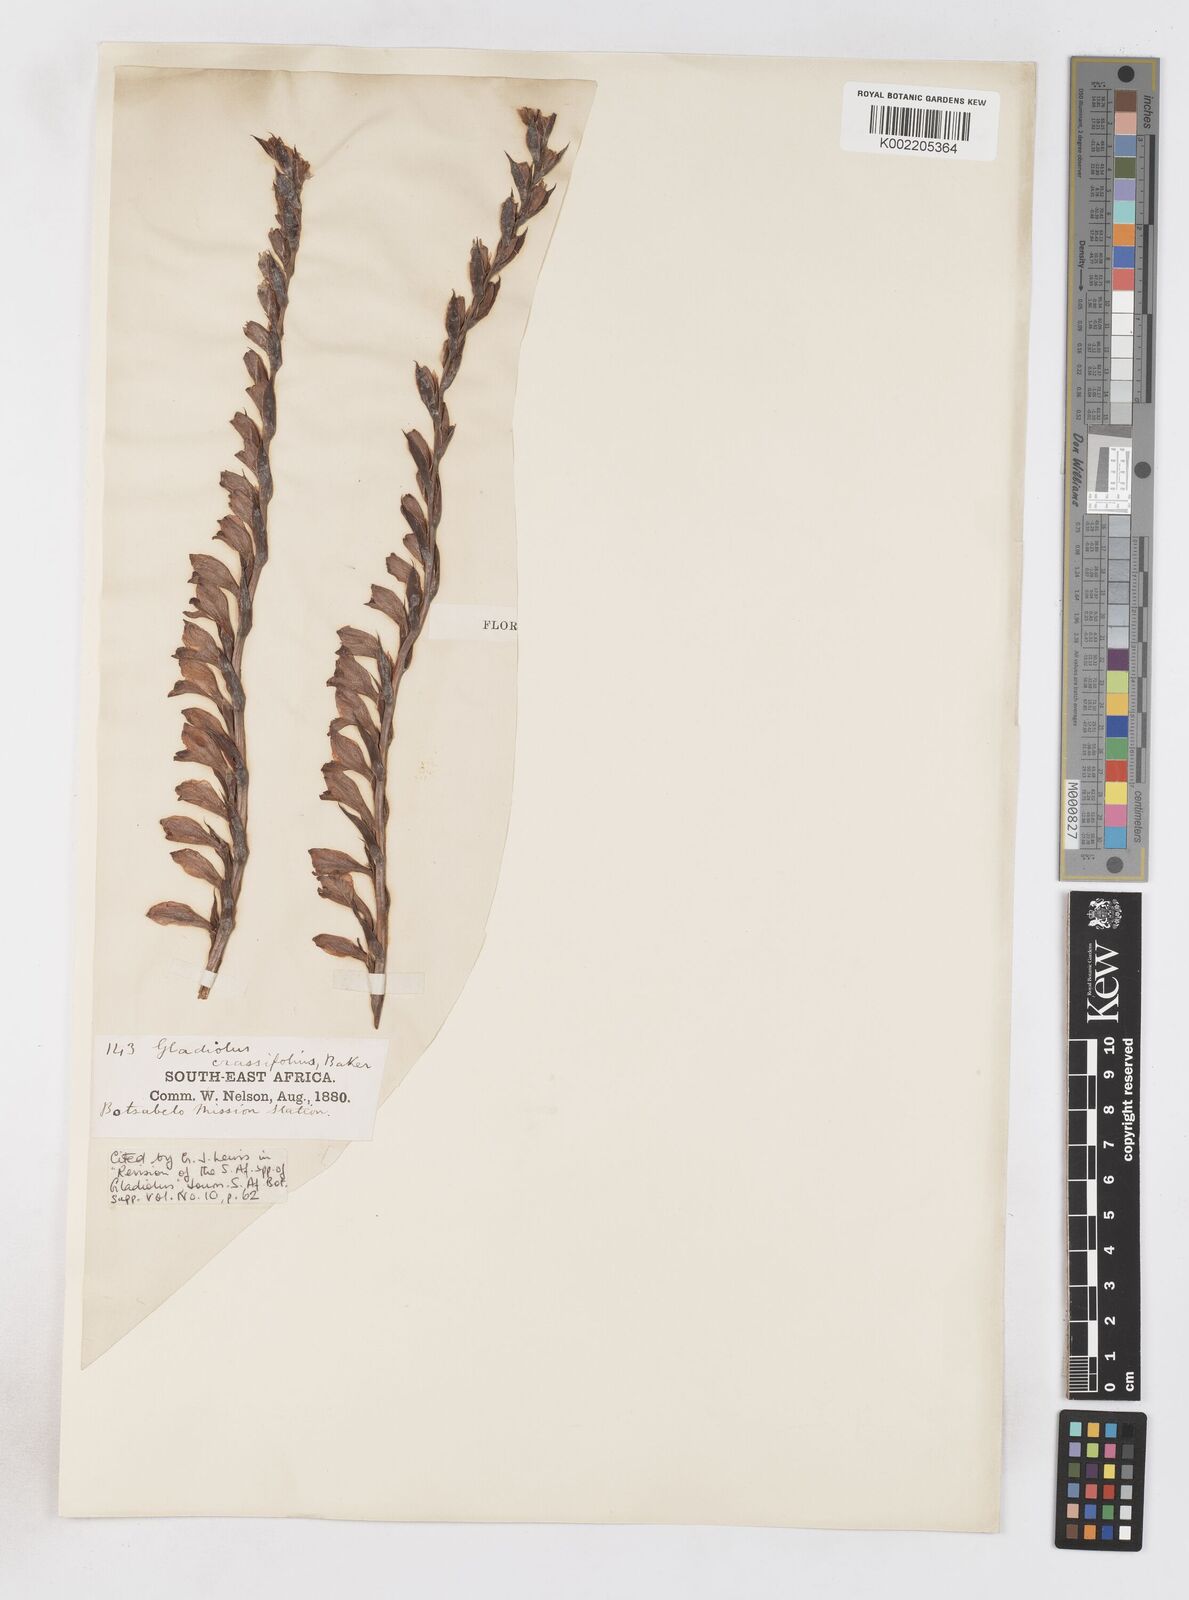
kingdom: Plantae
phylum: Tracheophyta
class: Liliopsida
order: Asparagales
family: Iridaceae
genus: Gladiolus
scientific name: Gladiolus crassifolius
